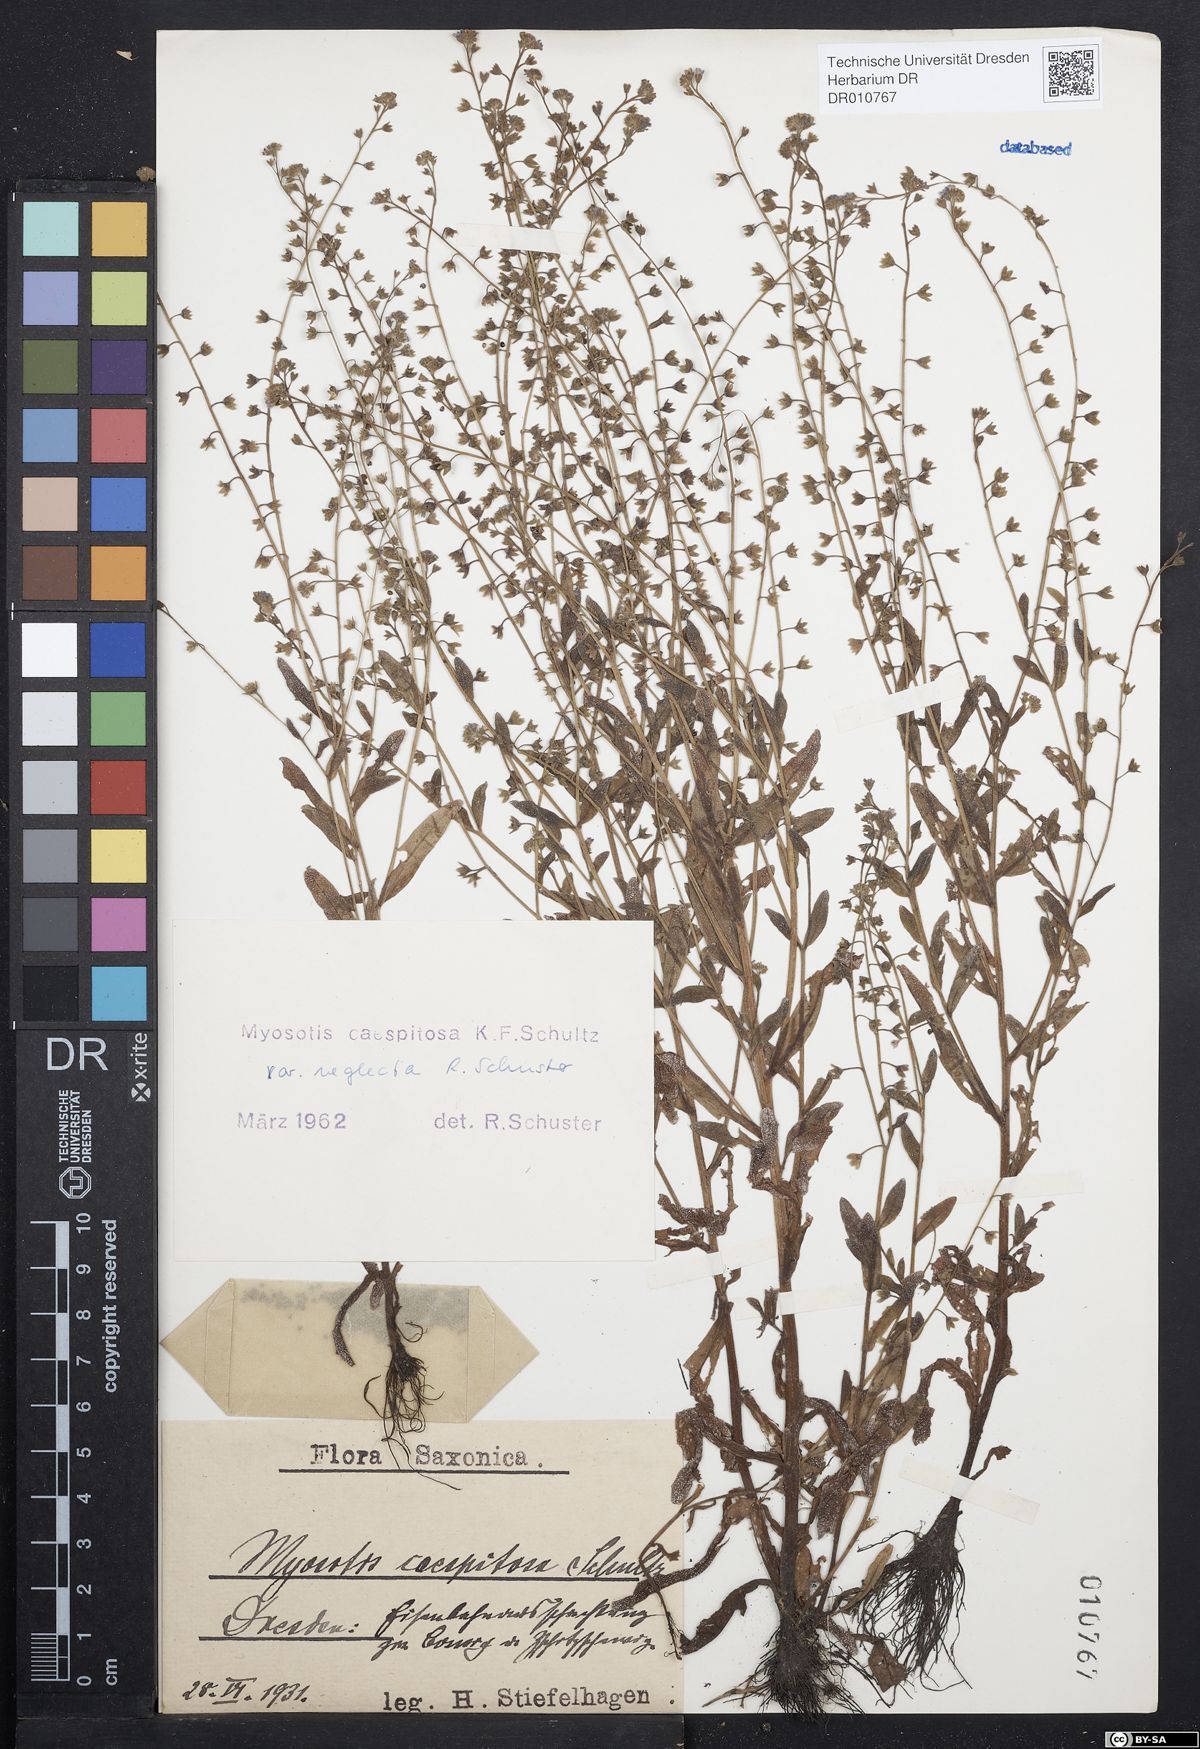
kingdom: Plantae
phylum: Tracheophyta
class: Magnoliopsida
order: Boraginales
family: Boraginaceae
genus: Myosotis
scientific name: Myosotis laxa
